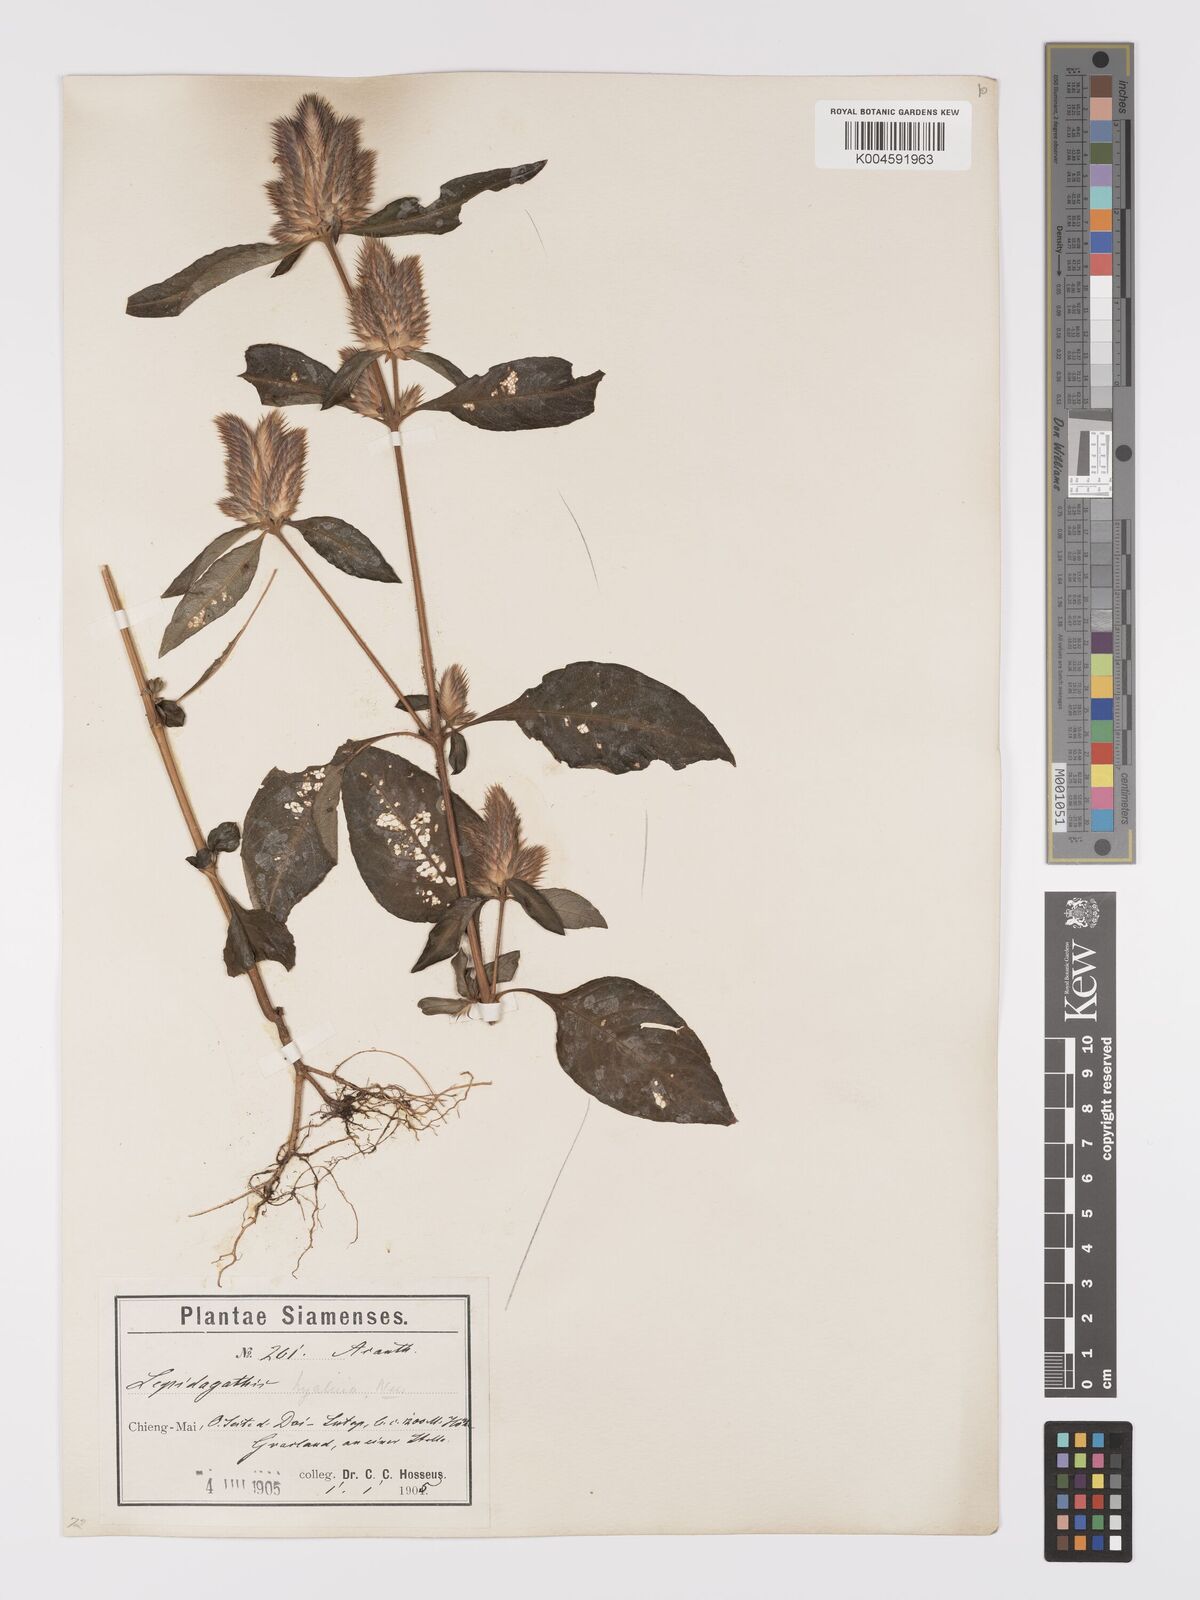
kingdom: Plantae
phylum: Tracheophyta
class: Magnoliopsida
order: Lamiales
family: Acanthaceae
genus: Lepidagathis
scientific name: Lepidagathis incurva
